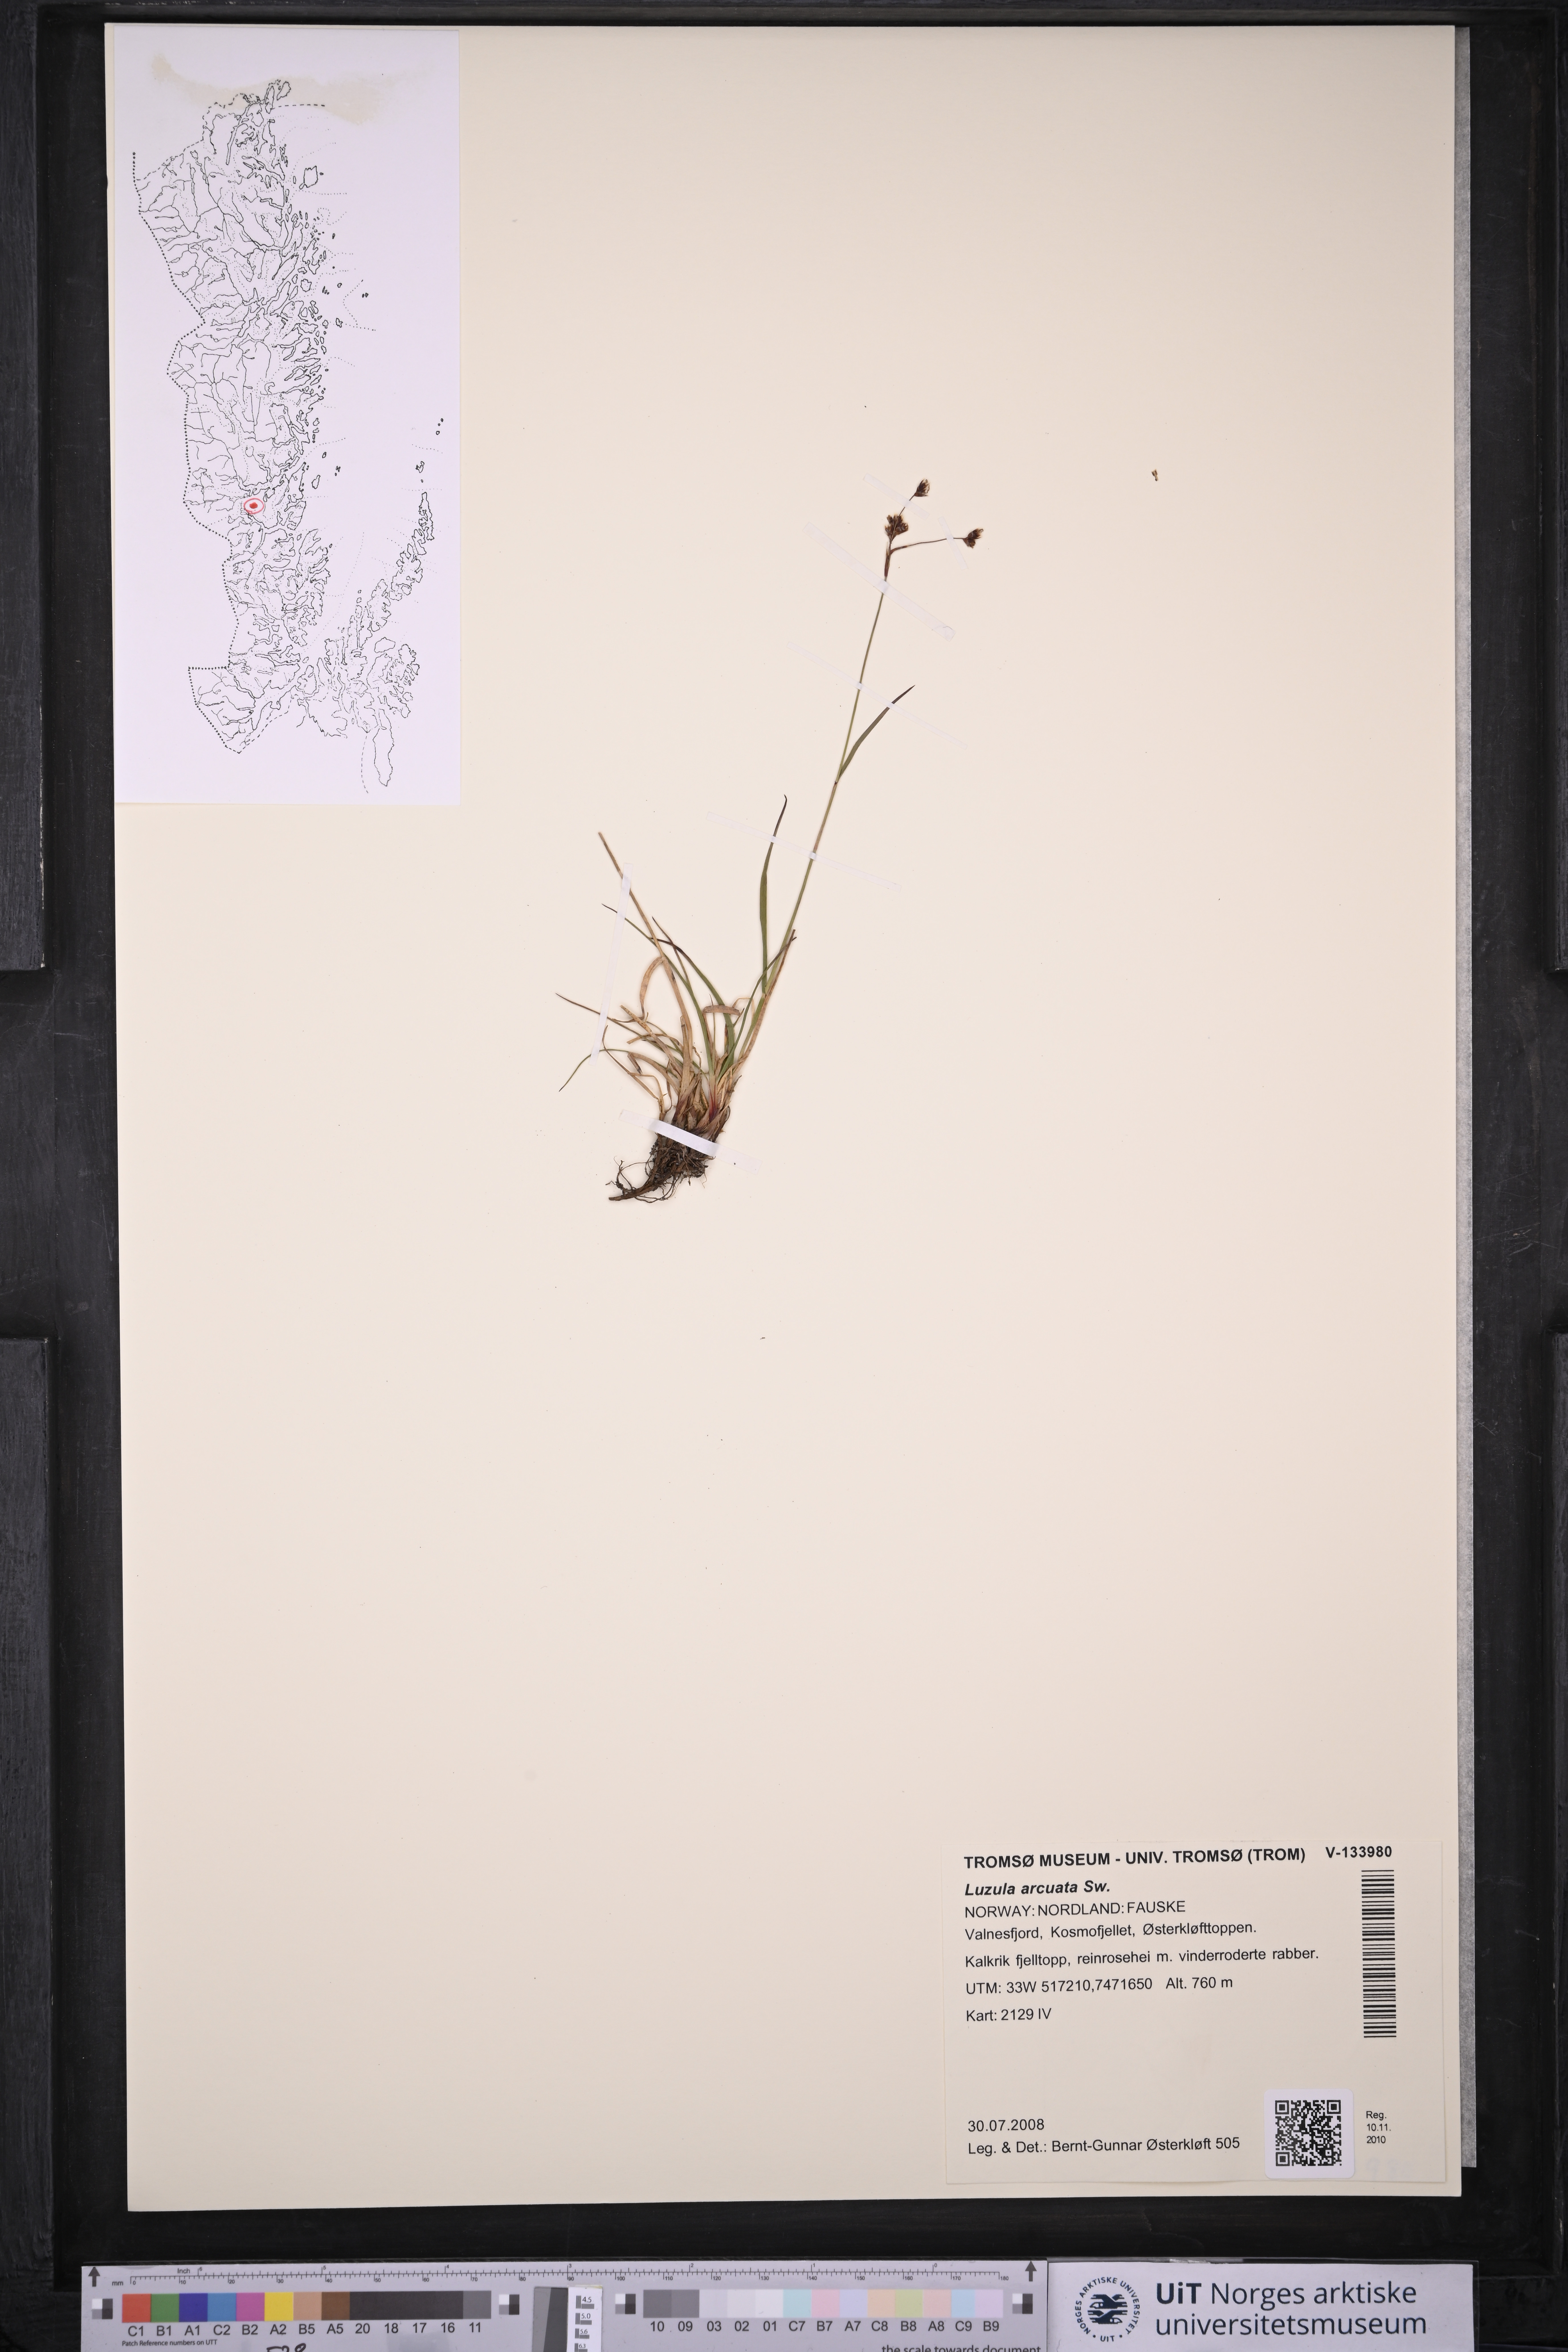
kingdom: Plantae
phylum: Tracheophyta
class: Liliopsida
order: Poales
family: Juncaceae
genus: Luzula
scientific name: Luzula arcuata
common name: Curved wood-rush
